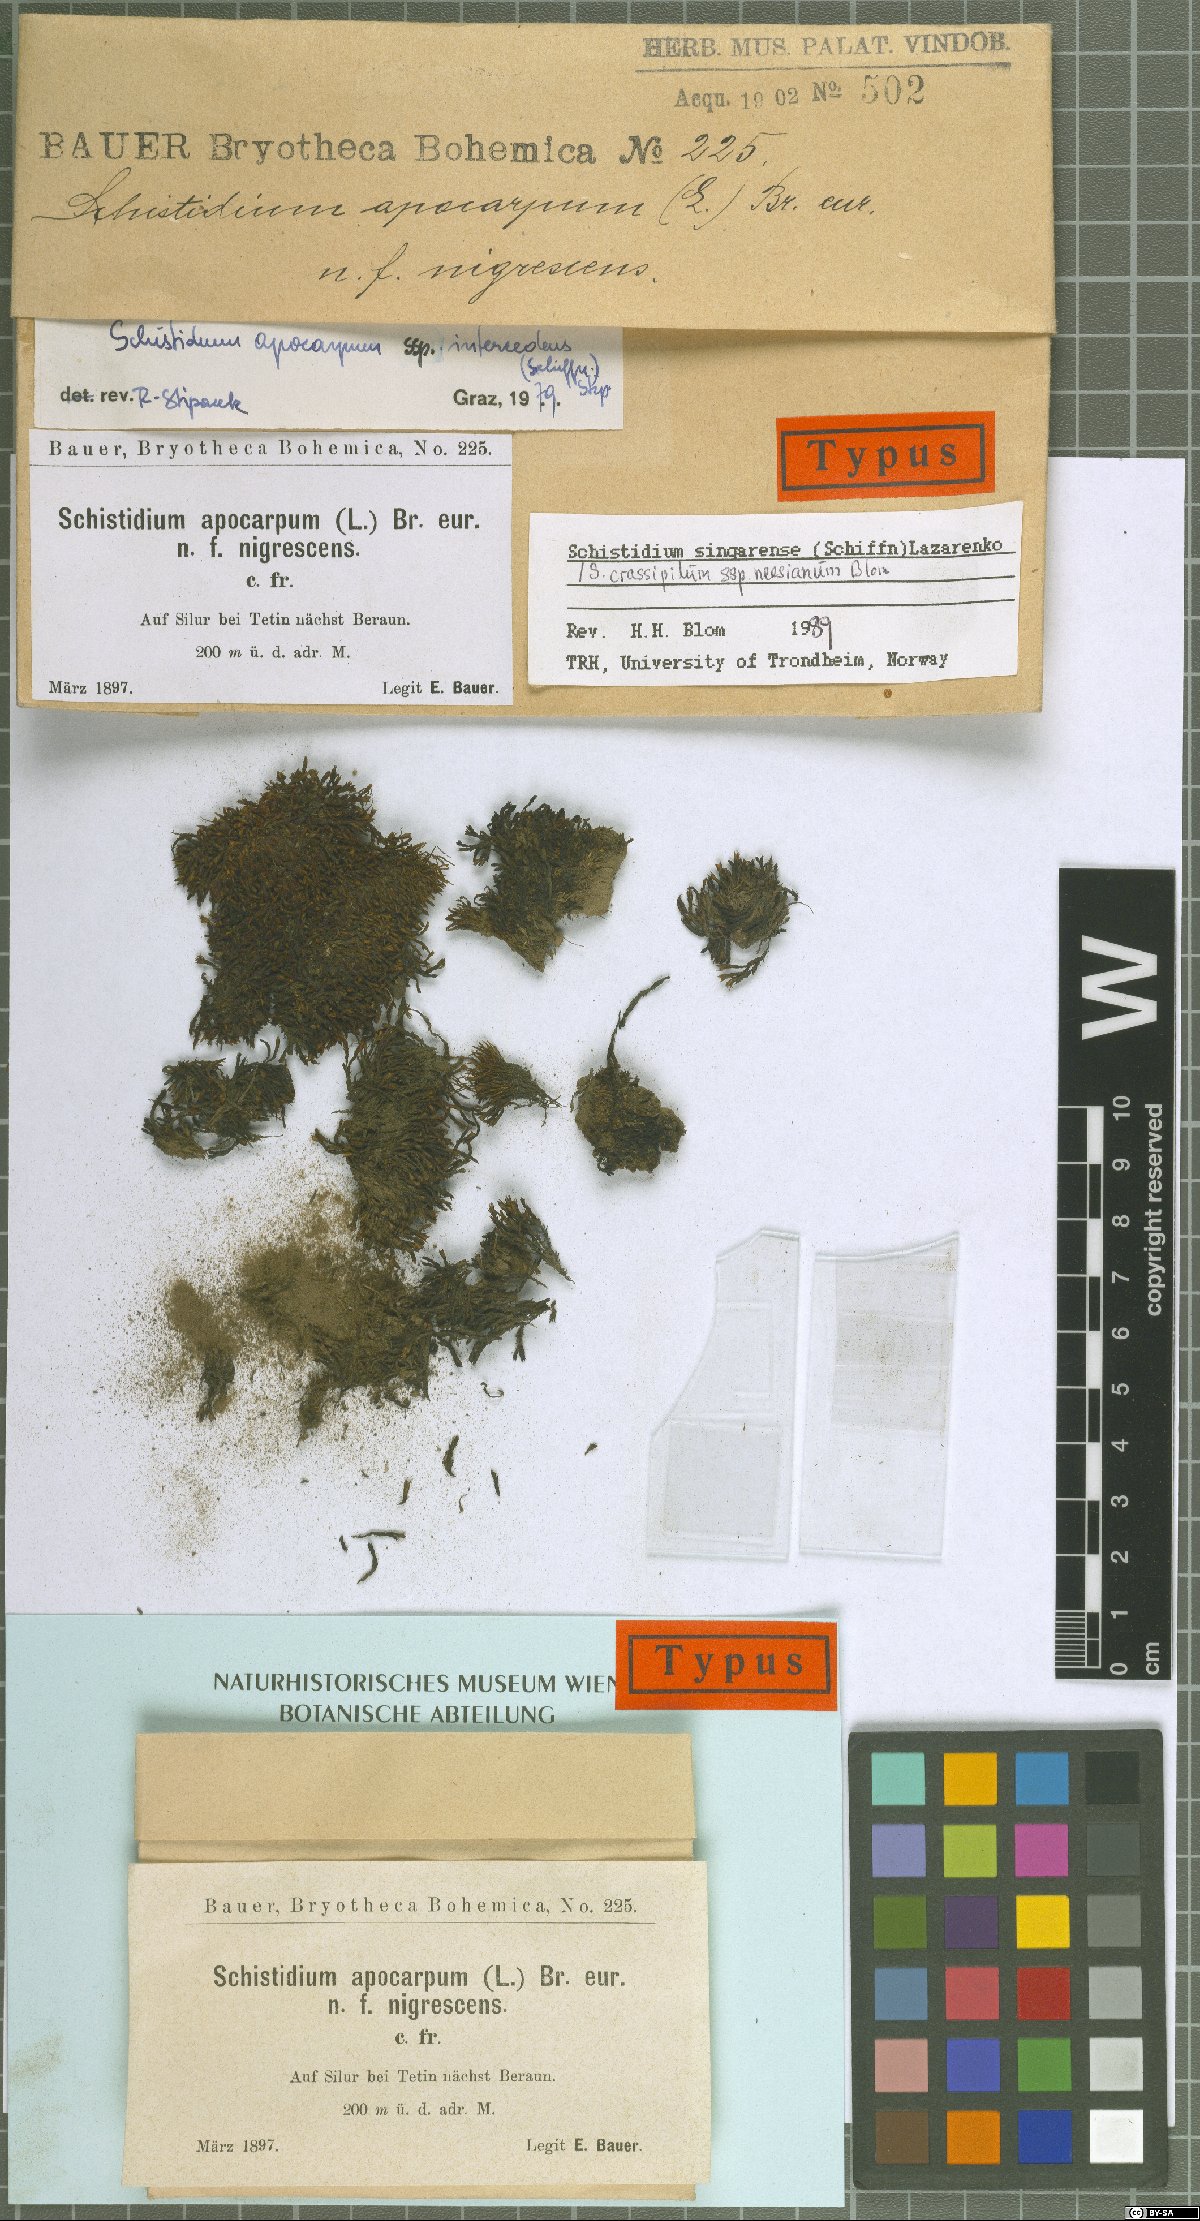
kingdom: Plantae
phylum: Bryophyta
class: Bryopsida
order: Grimmiales
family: Grimmiaceae
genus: Schistidium
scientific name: Schistidium trichodon
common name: Black bloom moss
